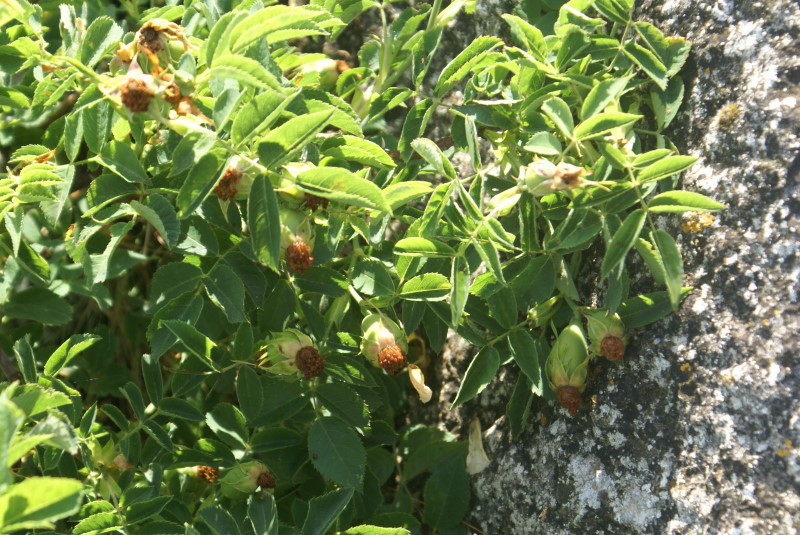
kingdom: Plantae
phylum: Tracheophyta
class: Magnoliopsida
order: Rosales
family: Rosaceae
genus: Rosa
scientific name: Rosa
